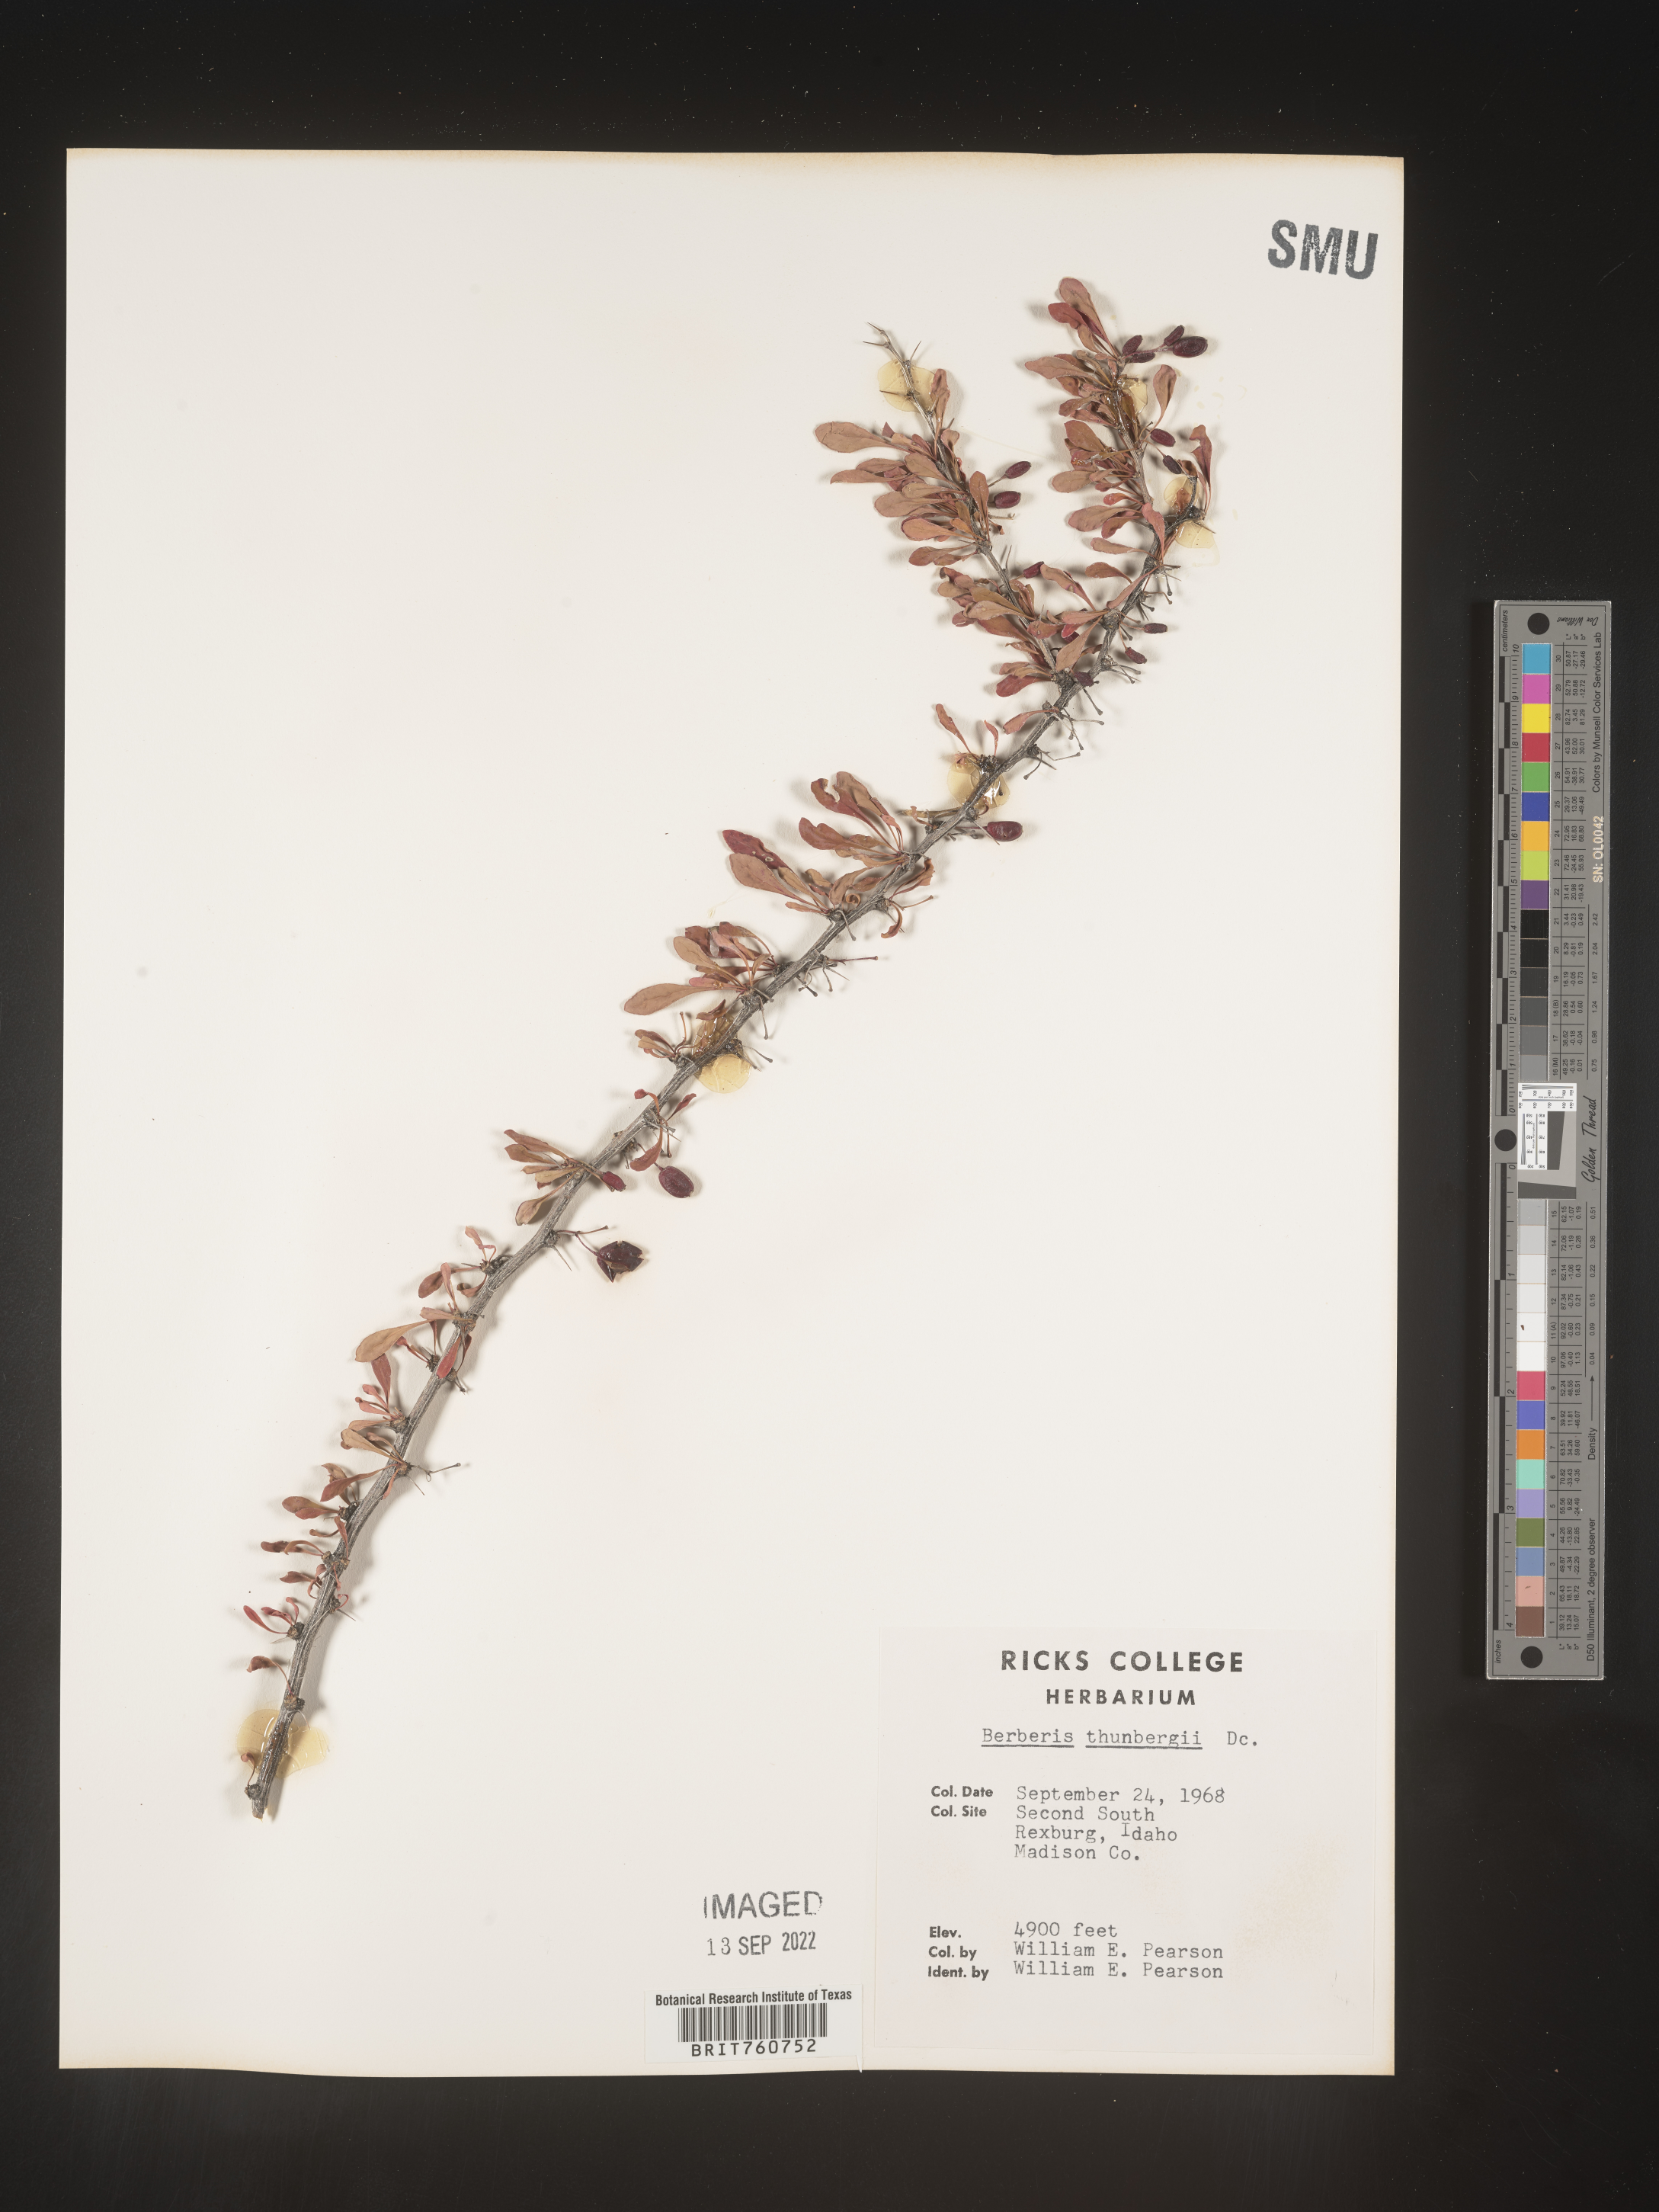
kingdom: Plantae
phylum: Tracheophyta
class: Magnoliopsida
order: Ranunculales
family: Berberidaceae
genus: Berberis
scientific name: Berberis
